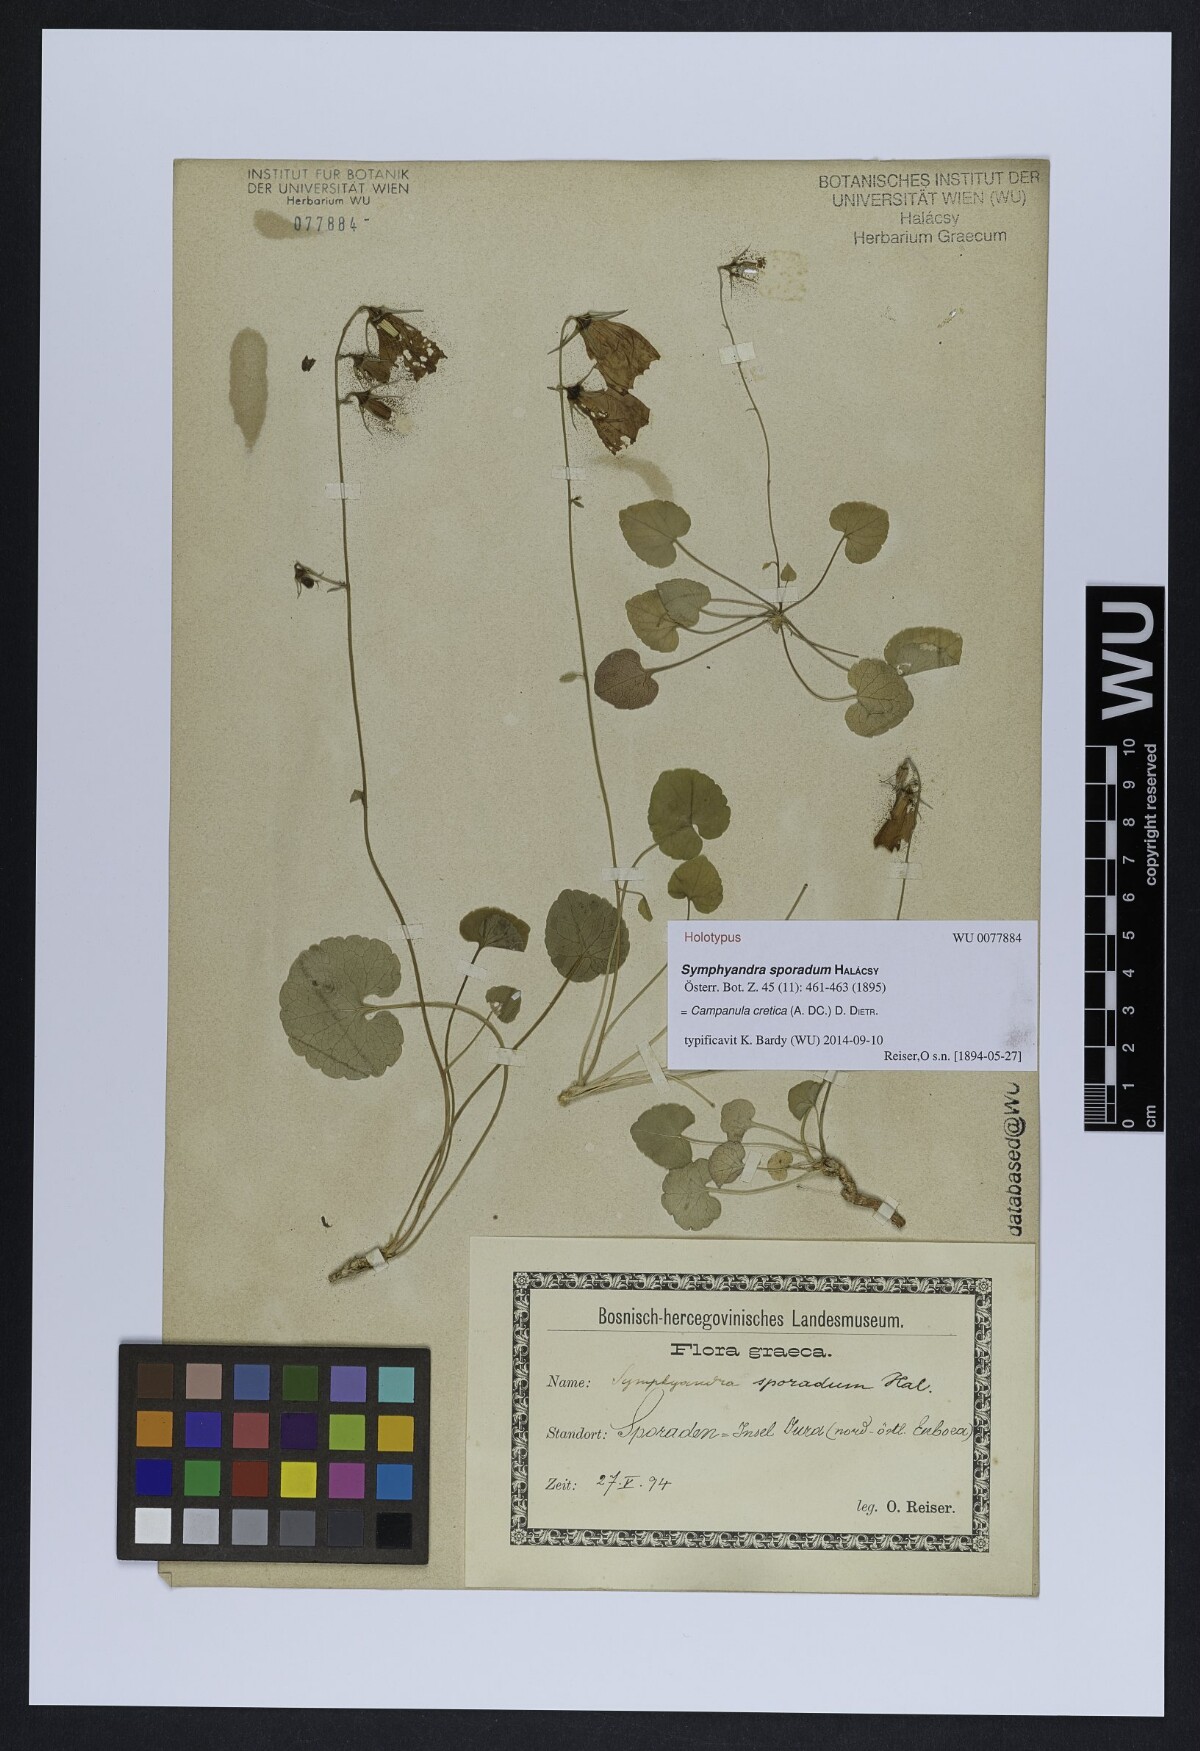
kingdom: Plantae
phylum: Tracheophyta
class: Magnoliopsida
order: Asterales
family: Campanulaceae
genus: Campanula
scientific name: Campanula samothracica
